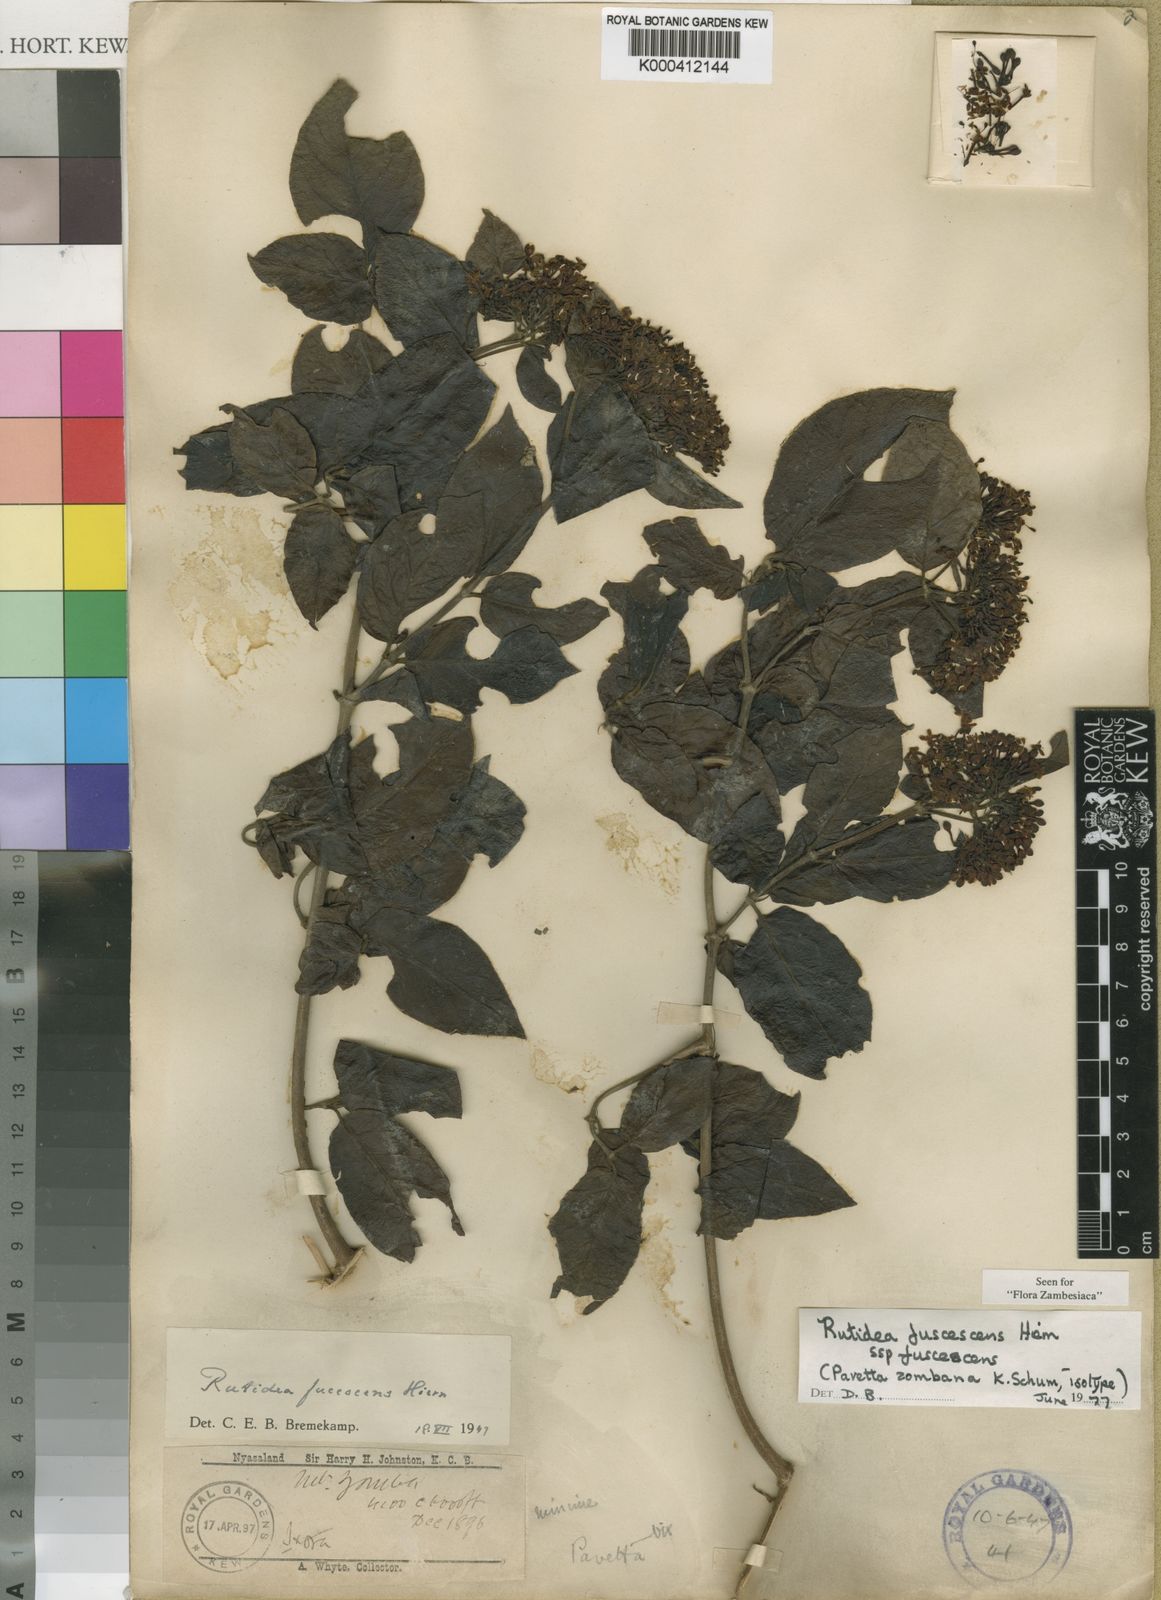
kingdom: Plantae
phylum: Tracheophyta
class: Magnoliopsida
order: Gentianales
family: Rubiaceae
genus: Rutidea
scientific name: Rutidea fuscescens
